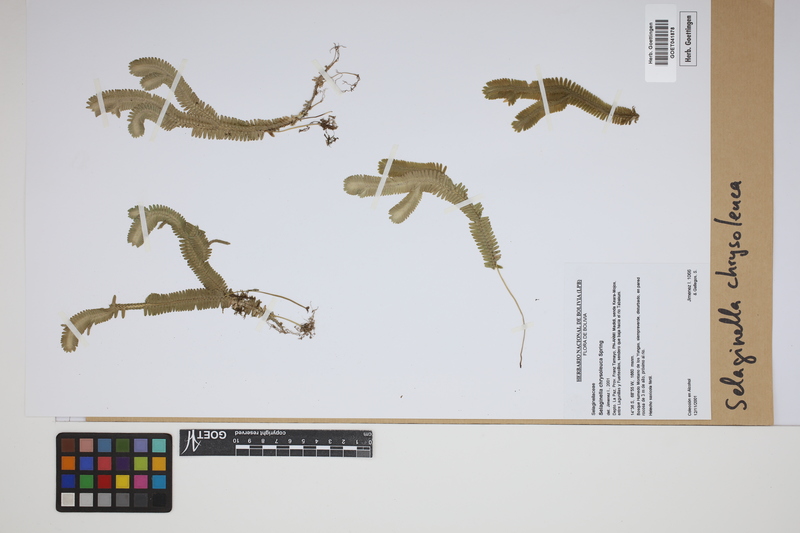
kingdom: Plantae
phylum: Tracheophyta
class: Lycopodiopsida
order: Selaginellales
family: Selaginellaceae
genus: Selaginella
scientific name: Selaginella chrysoleuca
